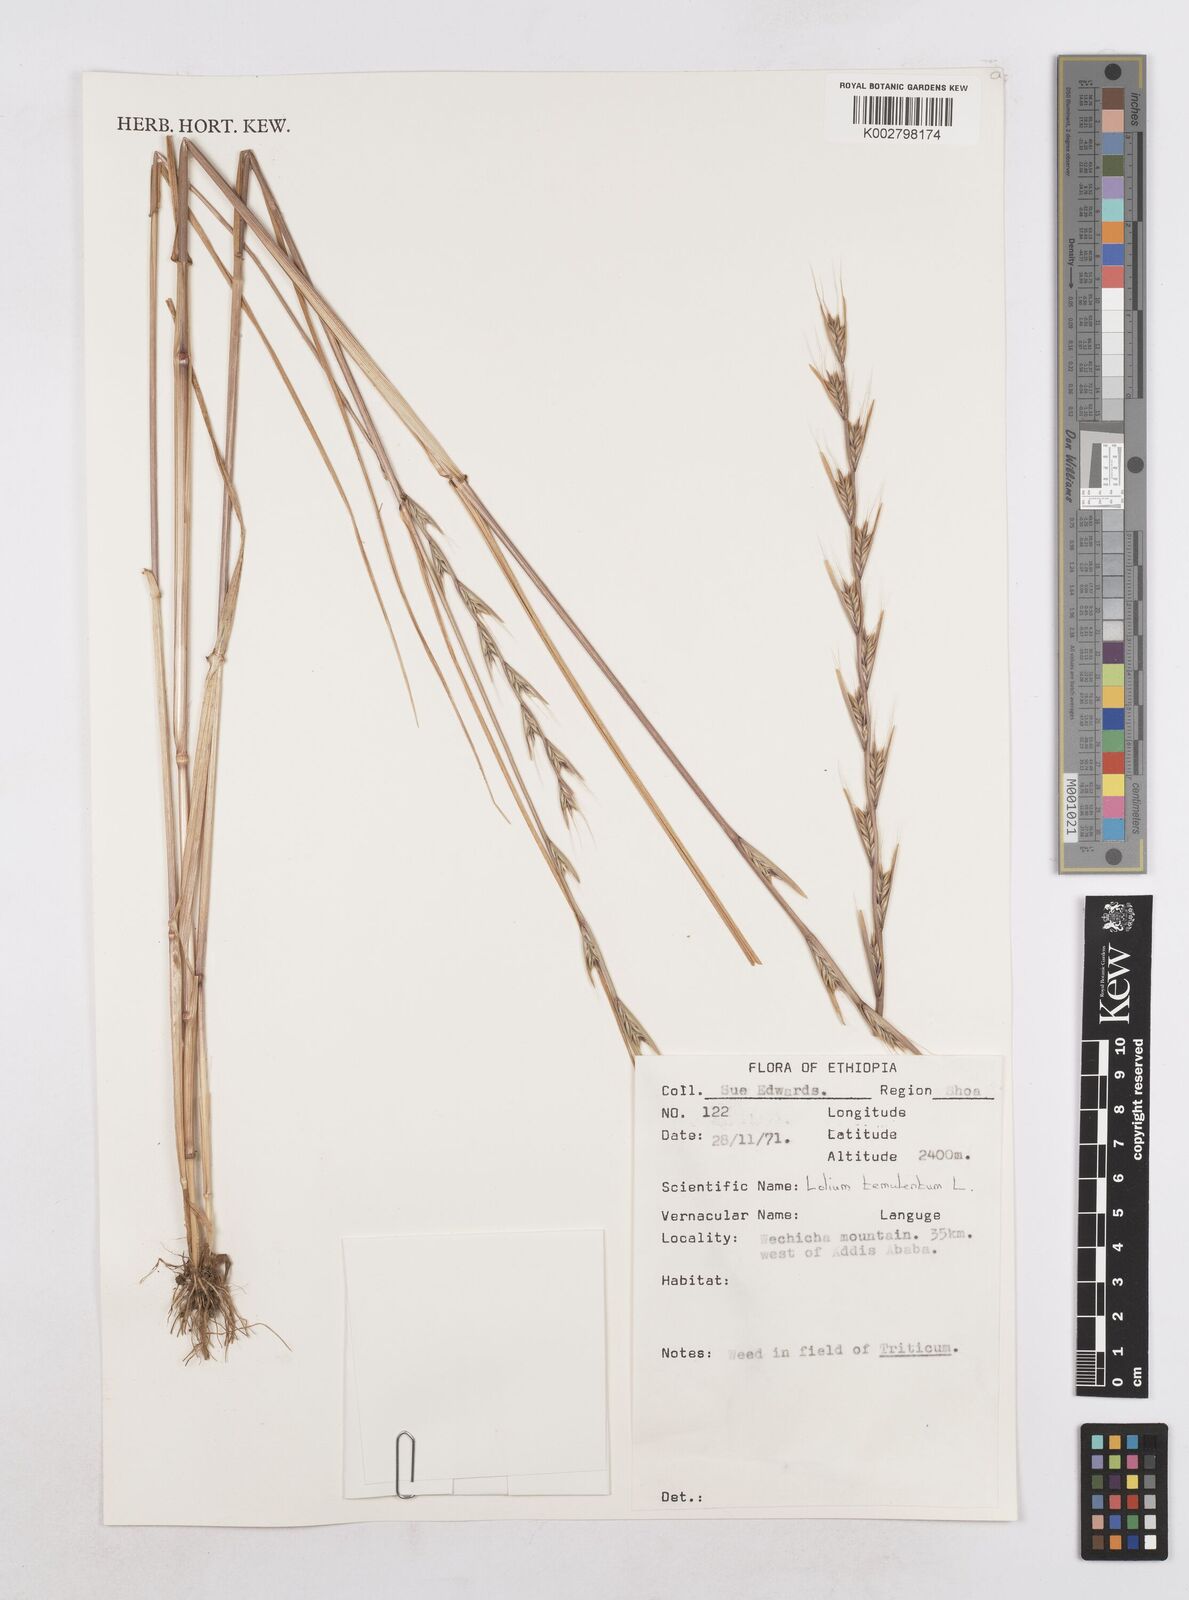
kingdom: Plantae
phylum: Tracheophyta
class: Liliopsida
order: Poales
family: Poaceae
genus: Lolium
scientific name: Lolium temulentum
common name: Darnel
